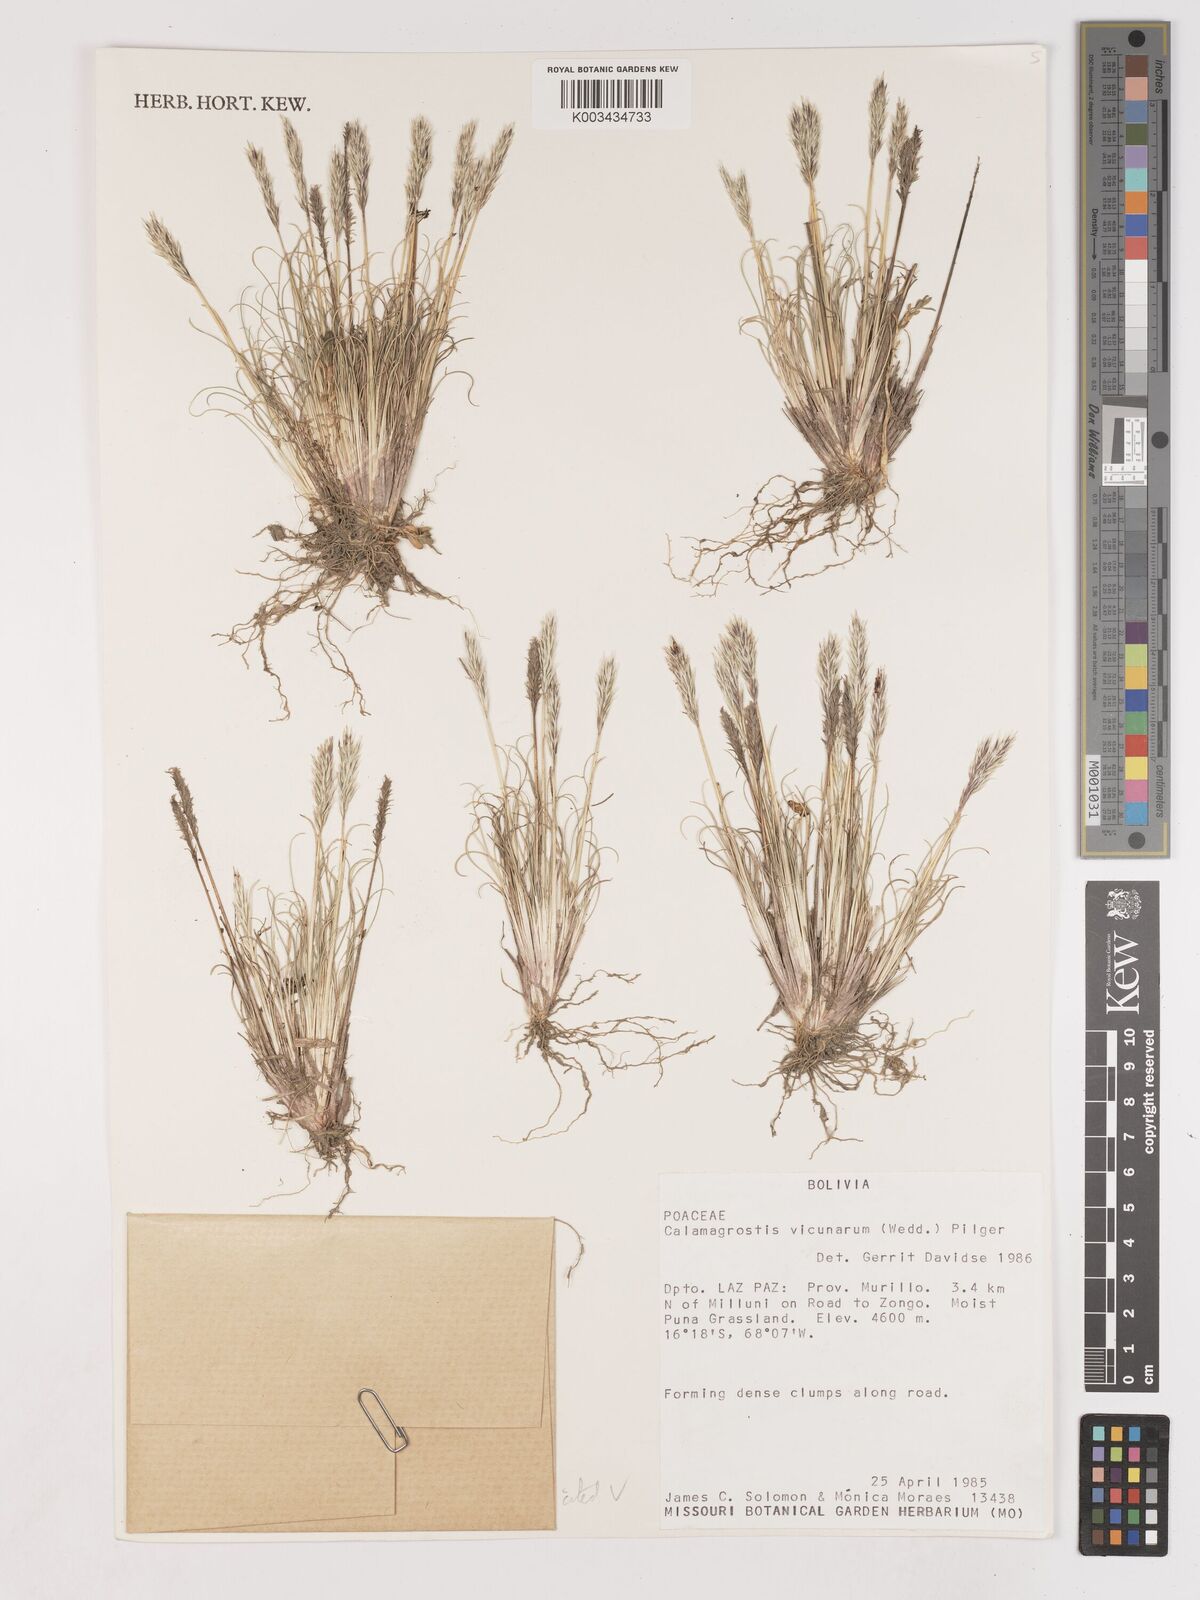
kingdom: Plantae
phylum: Tracheophyta
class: Liliopsida
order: Poales
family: Poaceae
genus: Cinnagrostis
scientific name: Cinnagrostis vicunarum
